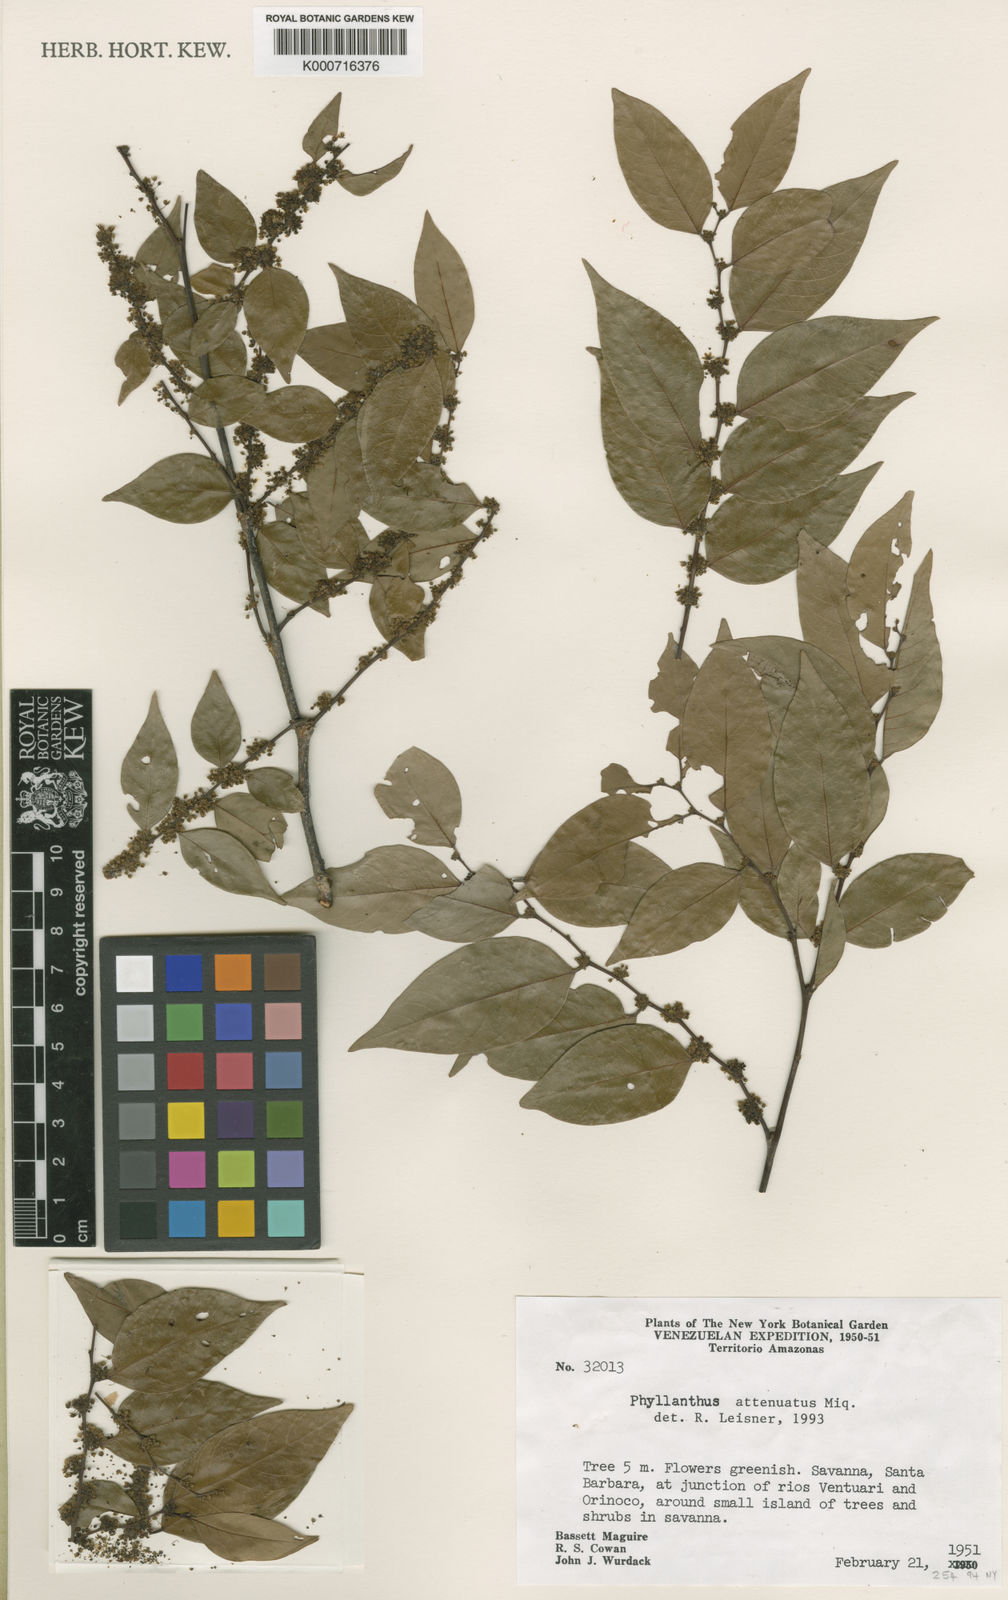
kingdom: Plantae
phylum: Tracheophyta
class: Magnoliopsida
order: Malpighiales
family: Phyllanthaceae
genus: Phyllanthus
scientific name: Phyllanthus attenuatus
